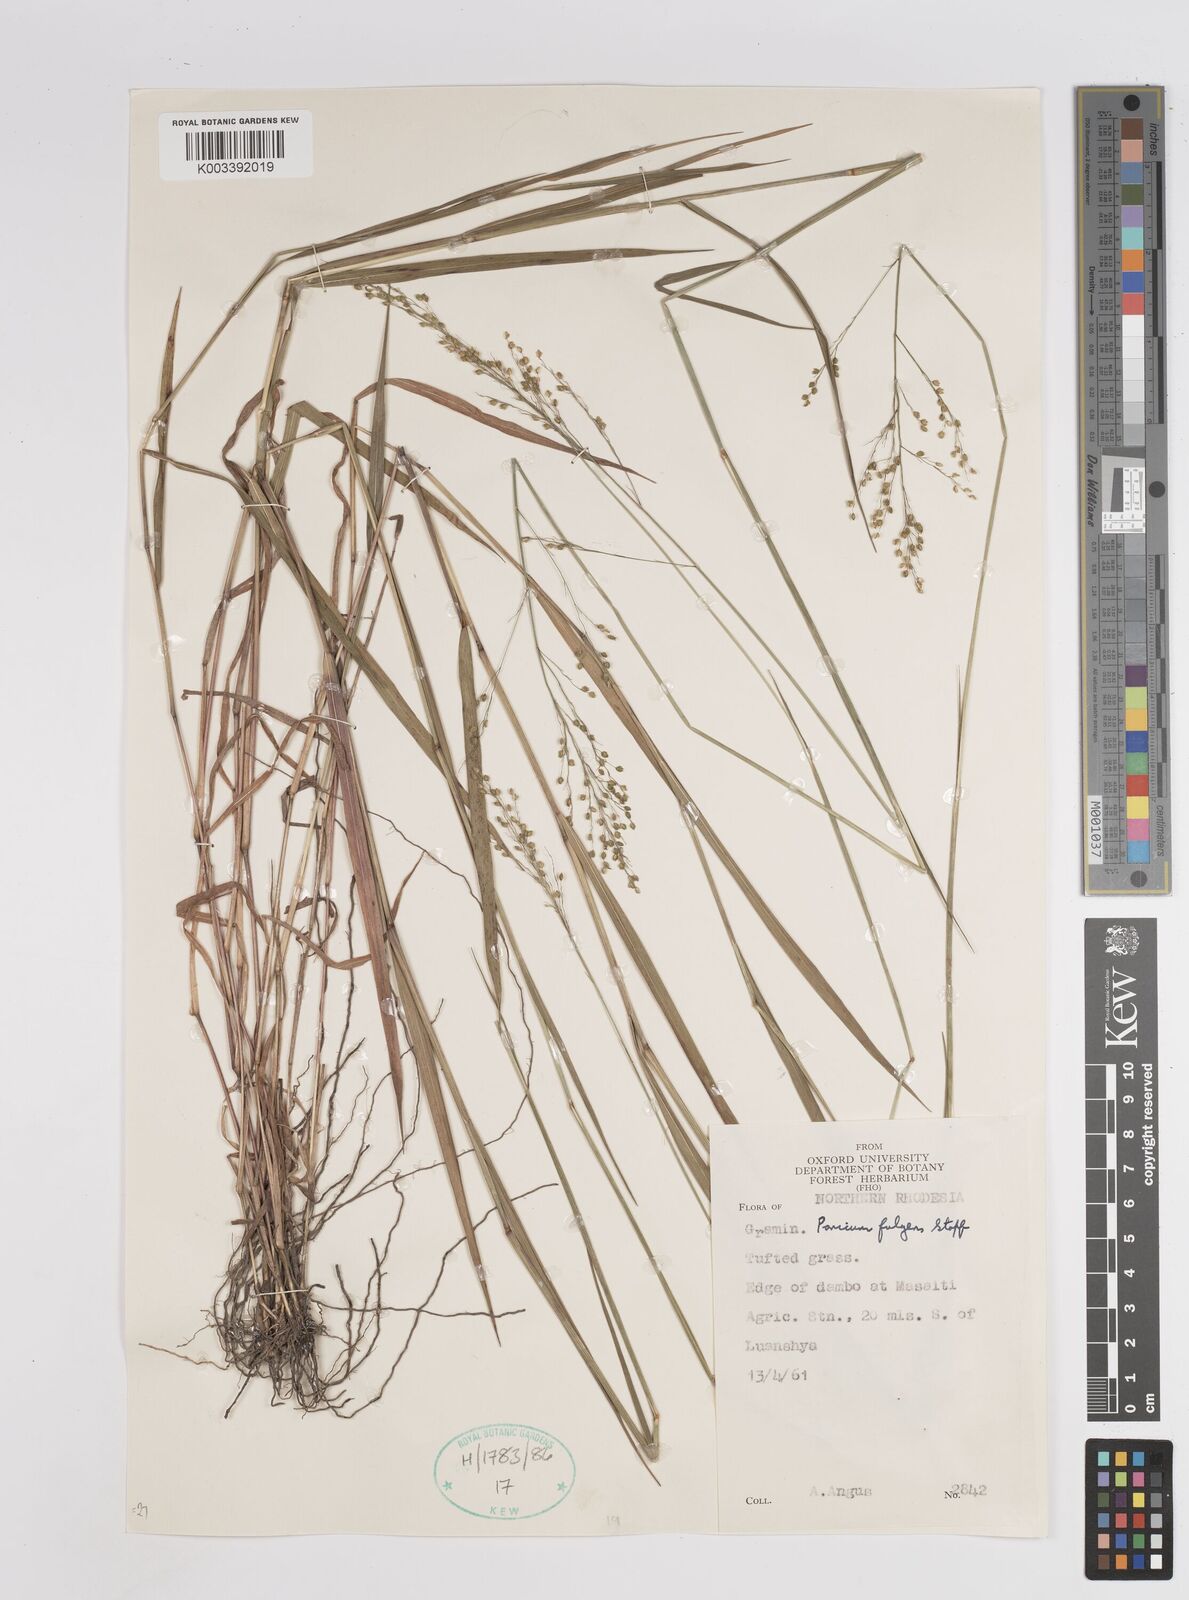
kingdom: Plantae
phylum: Tracheophyta
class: Liliopsida
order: Poales
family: Poaceae
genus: Trichanthecium
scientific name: Trichanthecium nervatum
